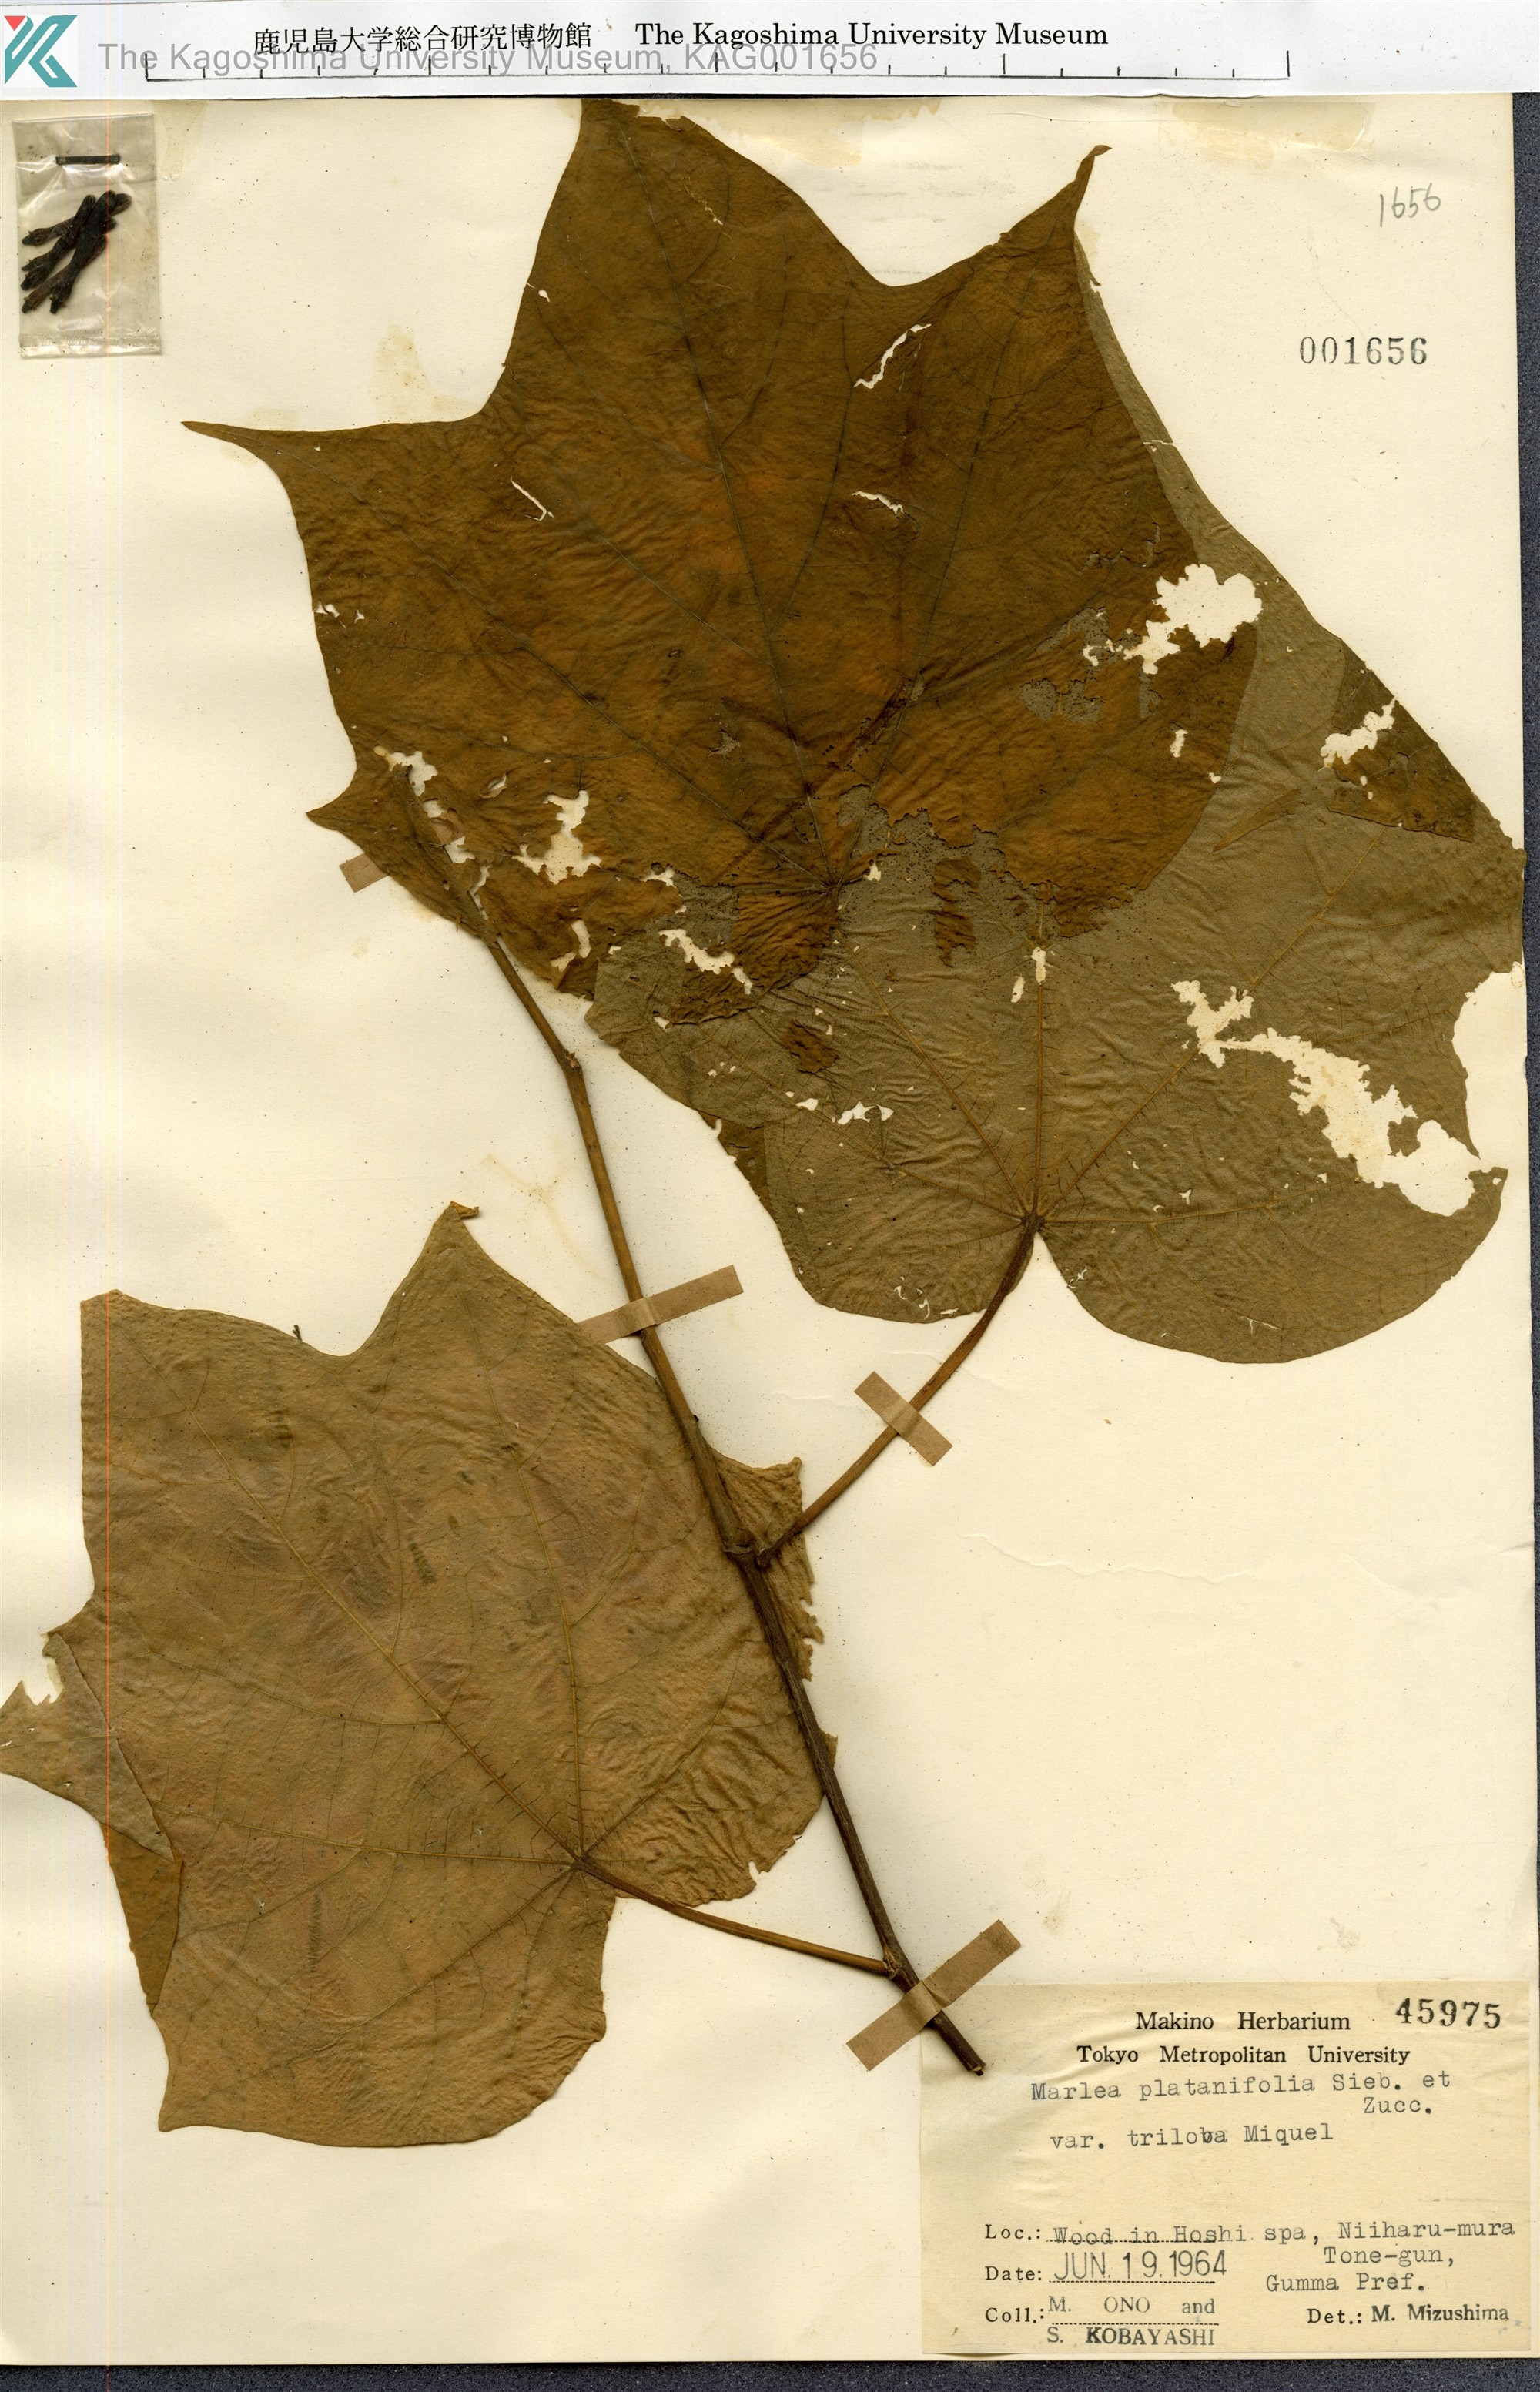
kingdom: Plantae
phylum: Tracheophyta
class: Magnoliopsida
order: Cornales
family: Cornaceae
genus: Alangium
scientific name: Alangium platanifolium
